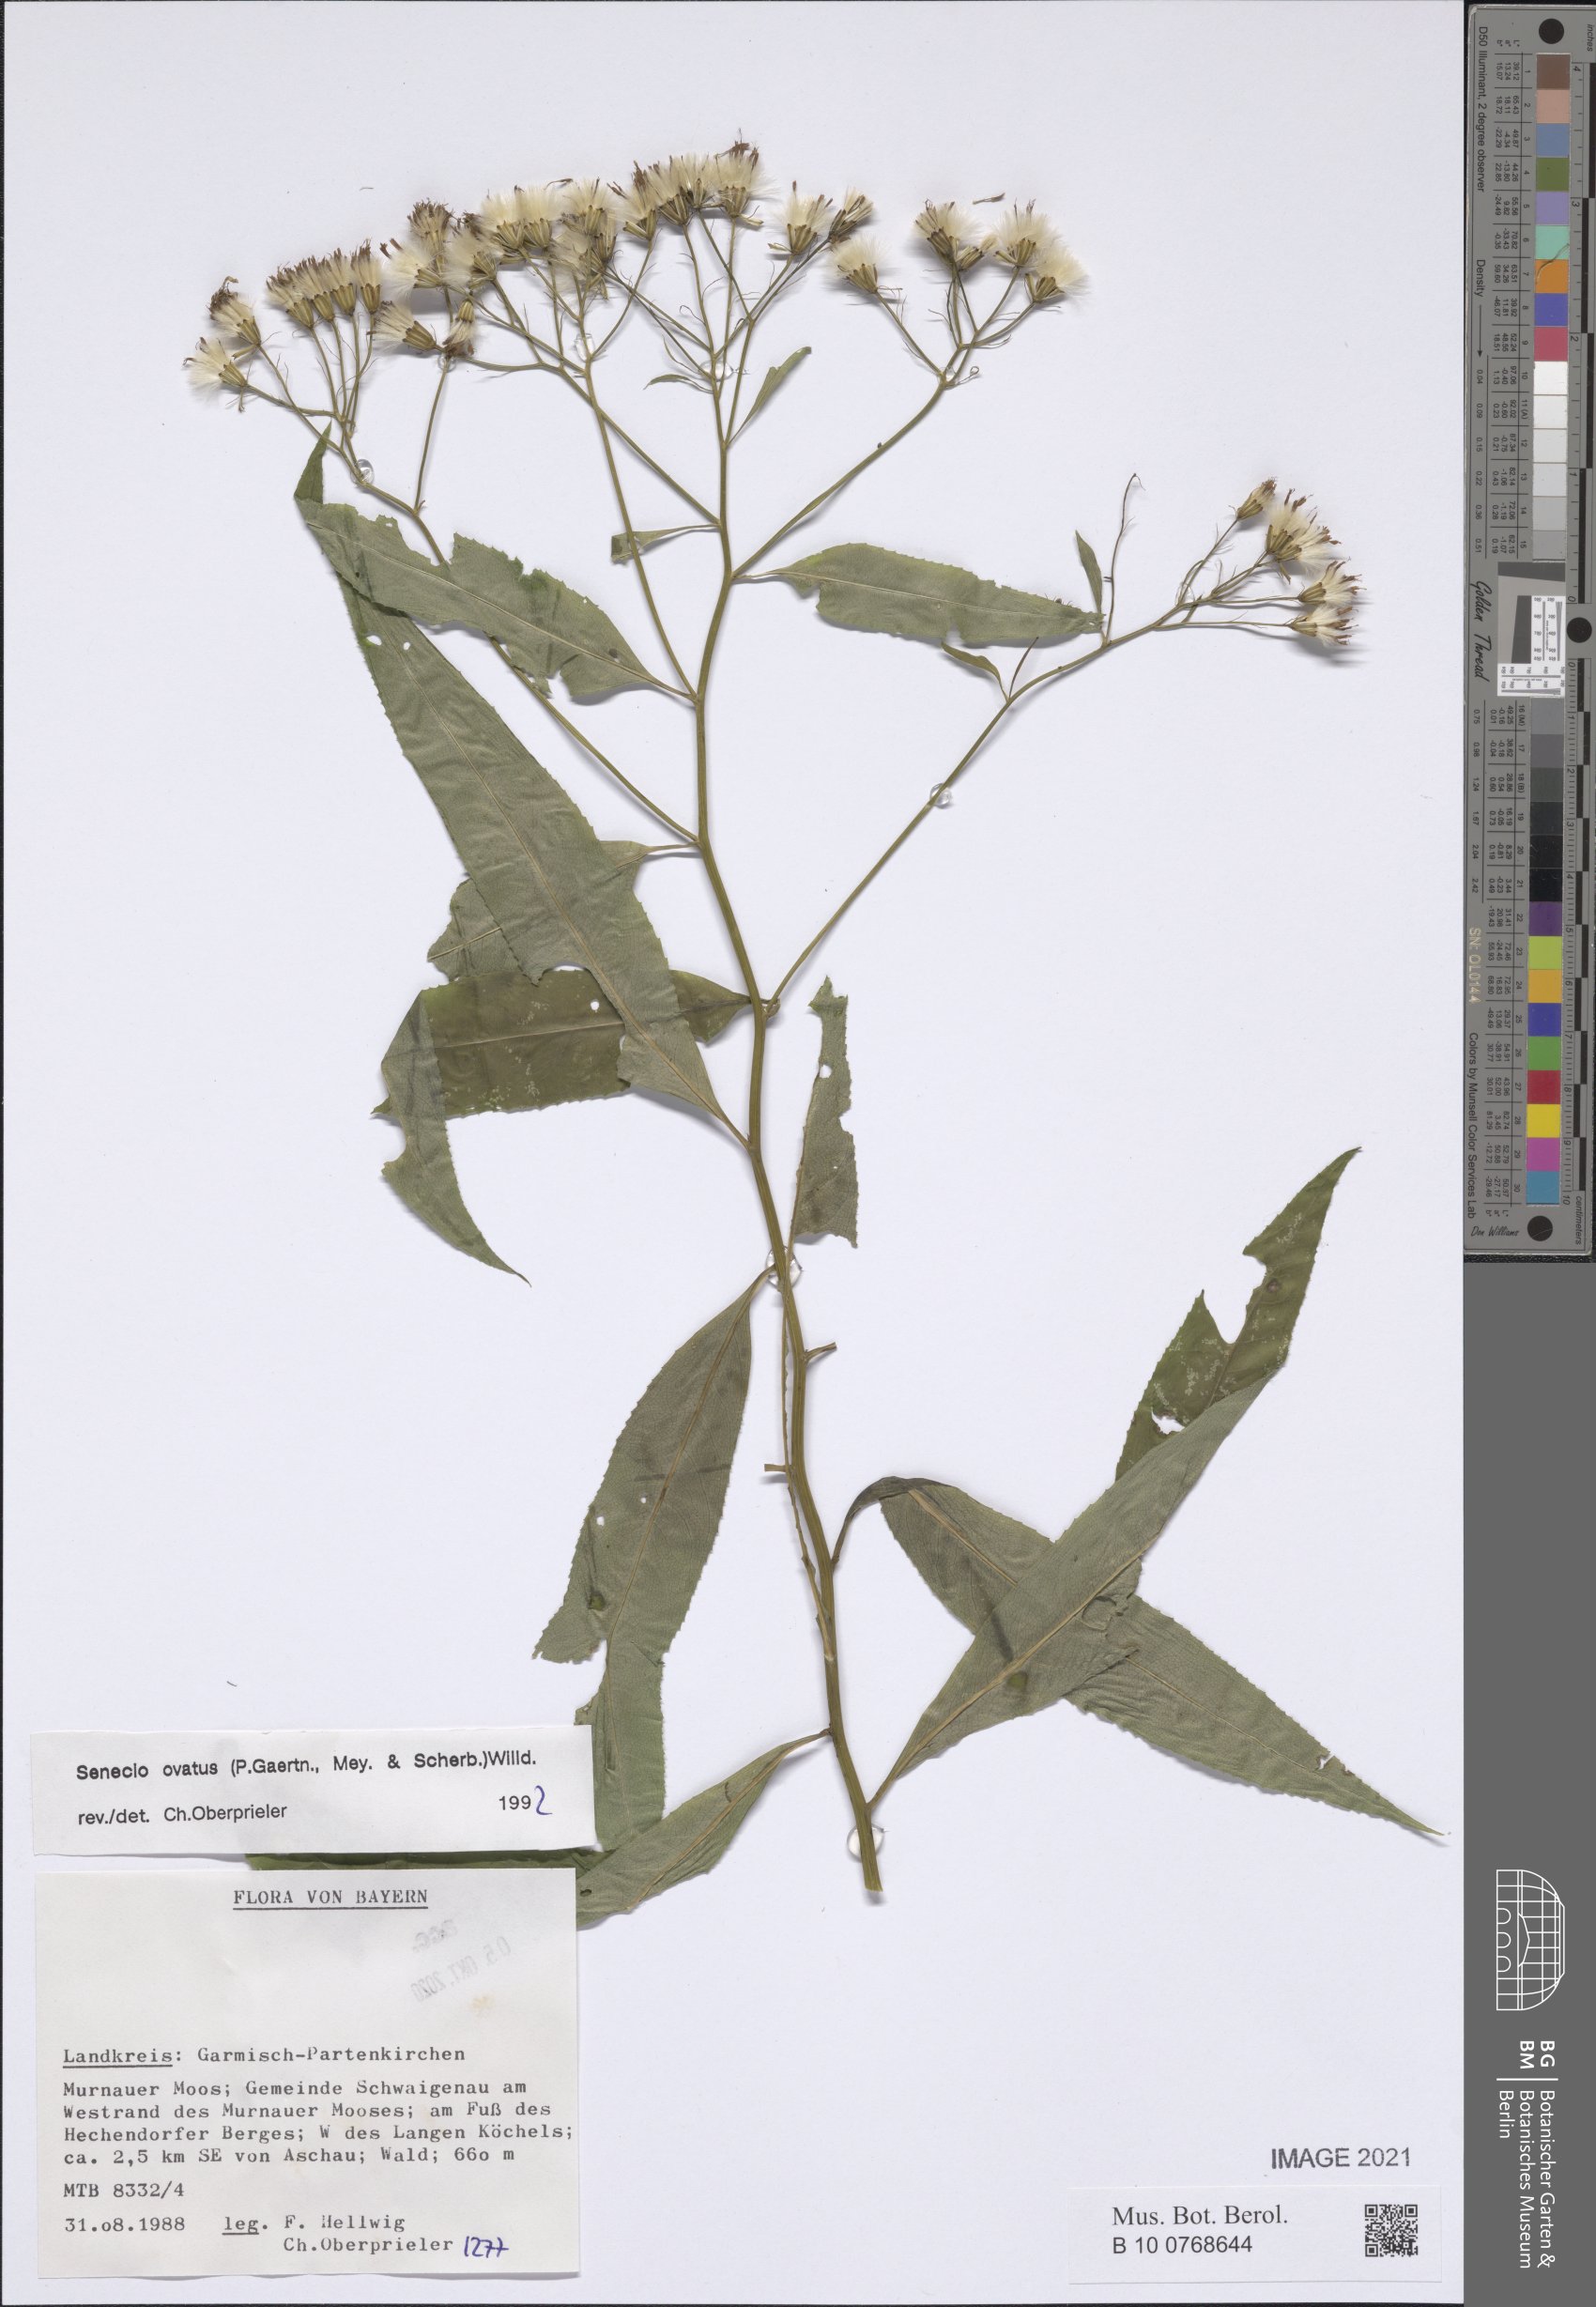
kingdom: Plantae
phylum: Tracheophyta
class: Magnoliopsida
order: Asterales
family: Asteraceae
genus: Senecio
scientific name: Senecio ovatus
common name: Wood ragwort
